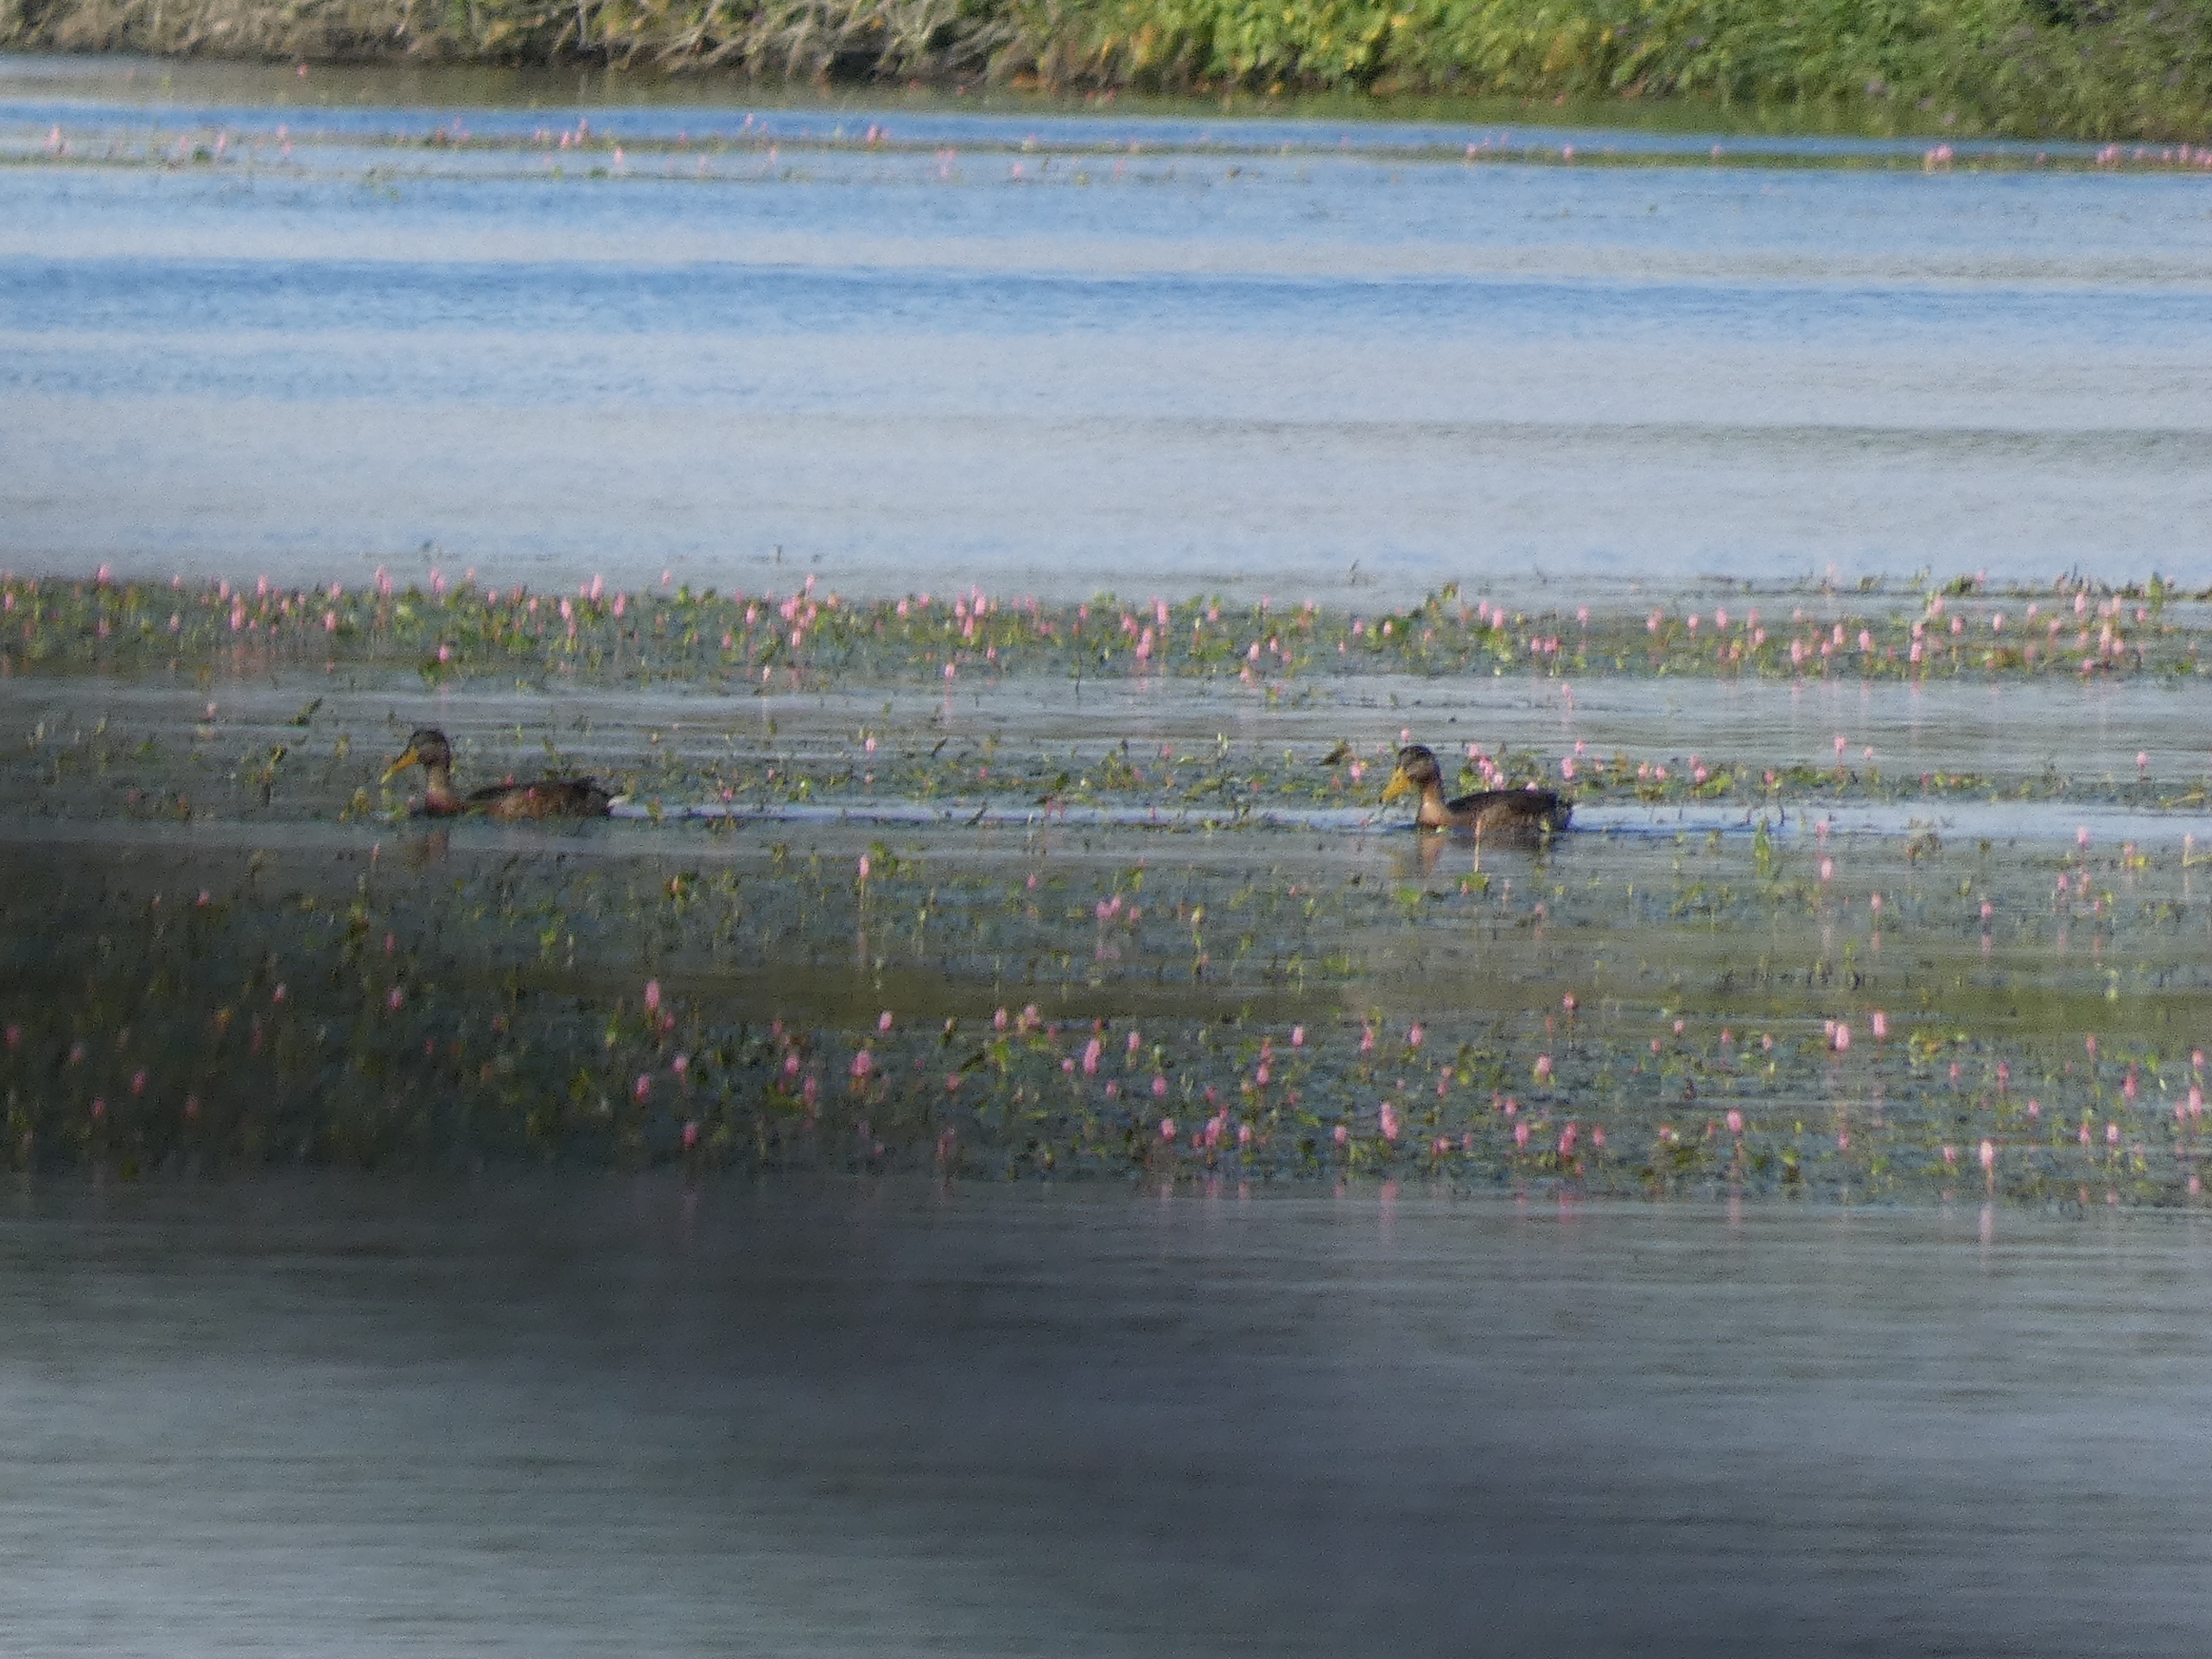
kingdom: Animalia
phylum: Chordata
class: Aves
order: Anseriformes
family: Anatidae
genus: Anas
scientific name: Anas platyrhynchos
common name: Gråand
